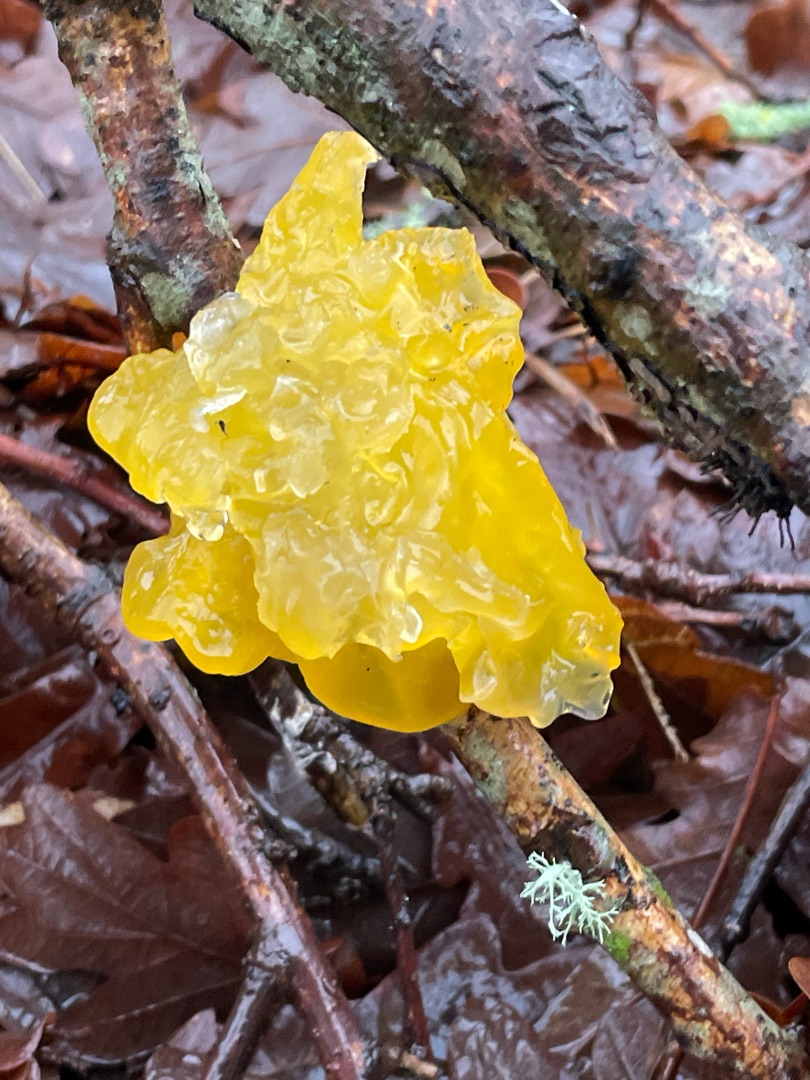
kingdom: Fungi
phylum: Basidiomycota
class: Tremellomycetes
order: Tremellales
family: Tremellaceae
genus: Tremella
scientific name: Tremella mesenterica
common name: Gul bævresvamp
